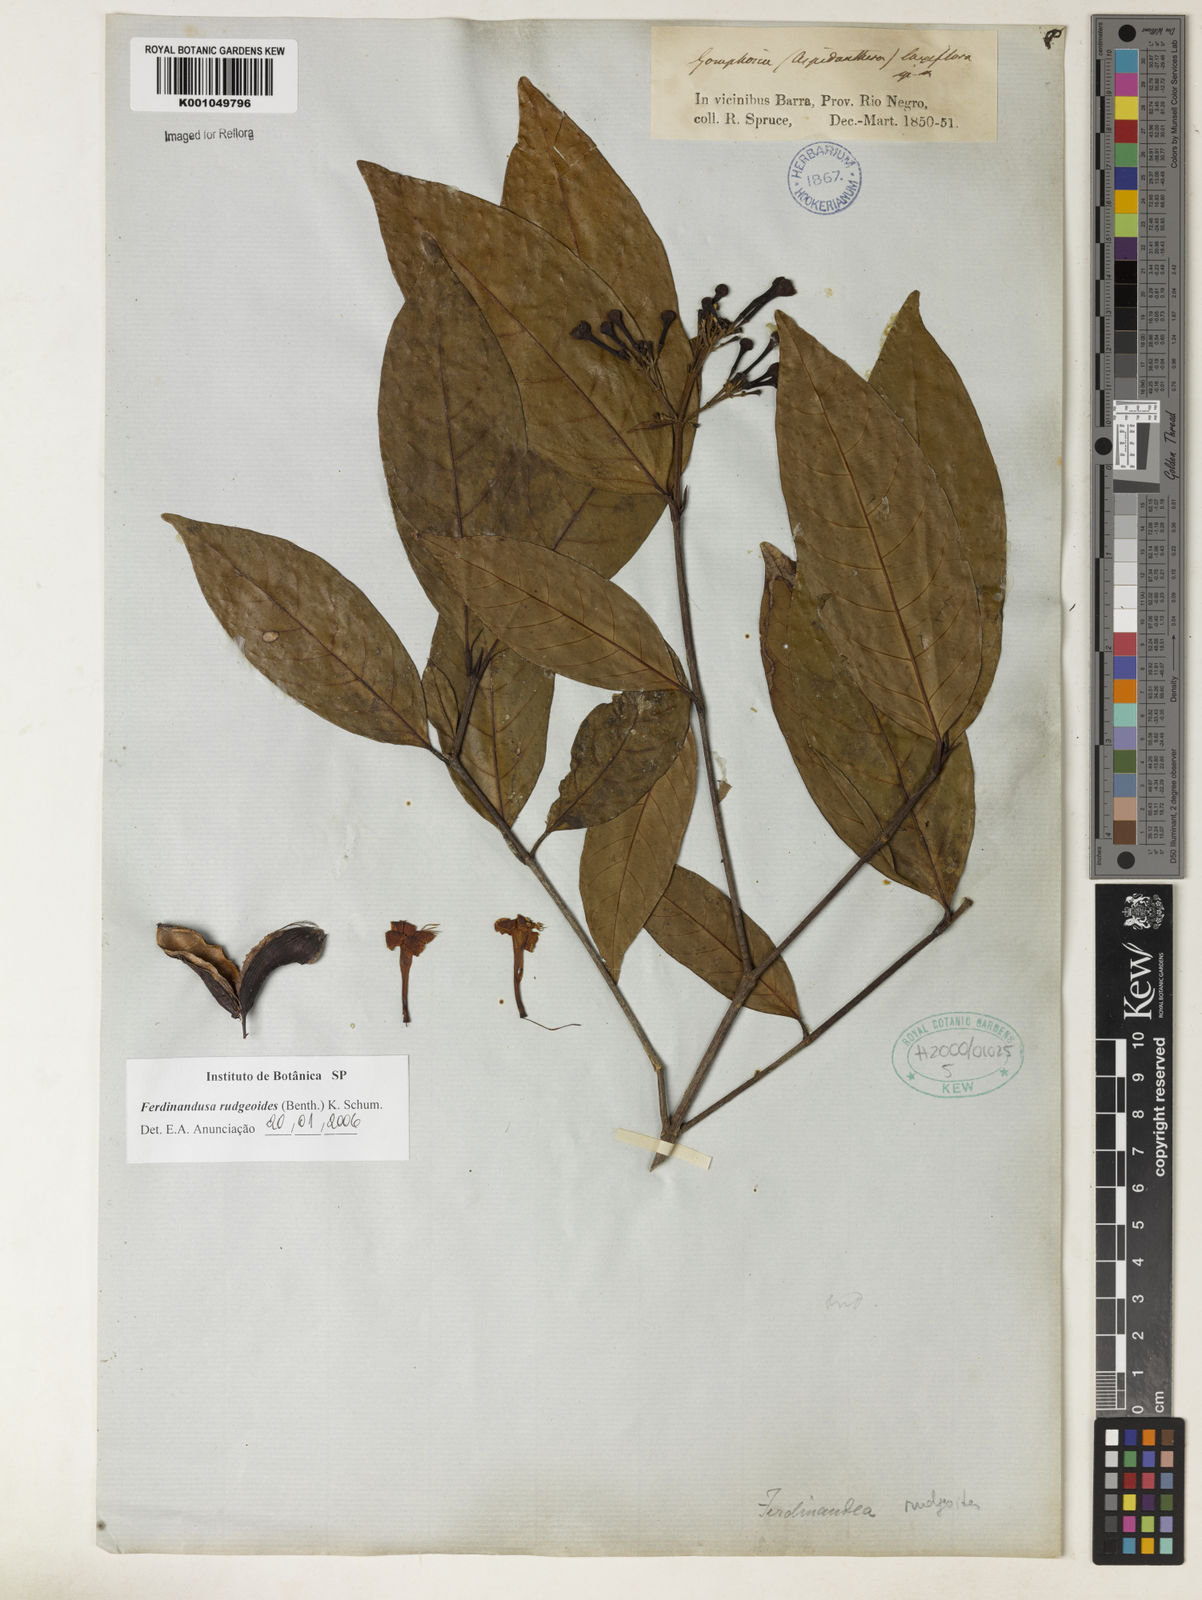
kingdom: Plantae
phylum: Tracheophyta
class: Magnoliopsida
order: Gentianales
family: Rubiaceae
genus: Ferdinandusa
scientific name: Ferdinandusa rudgeoides
